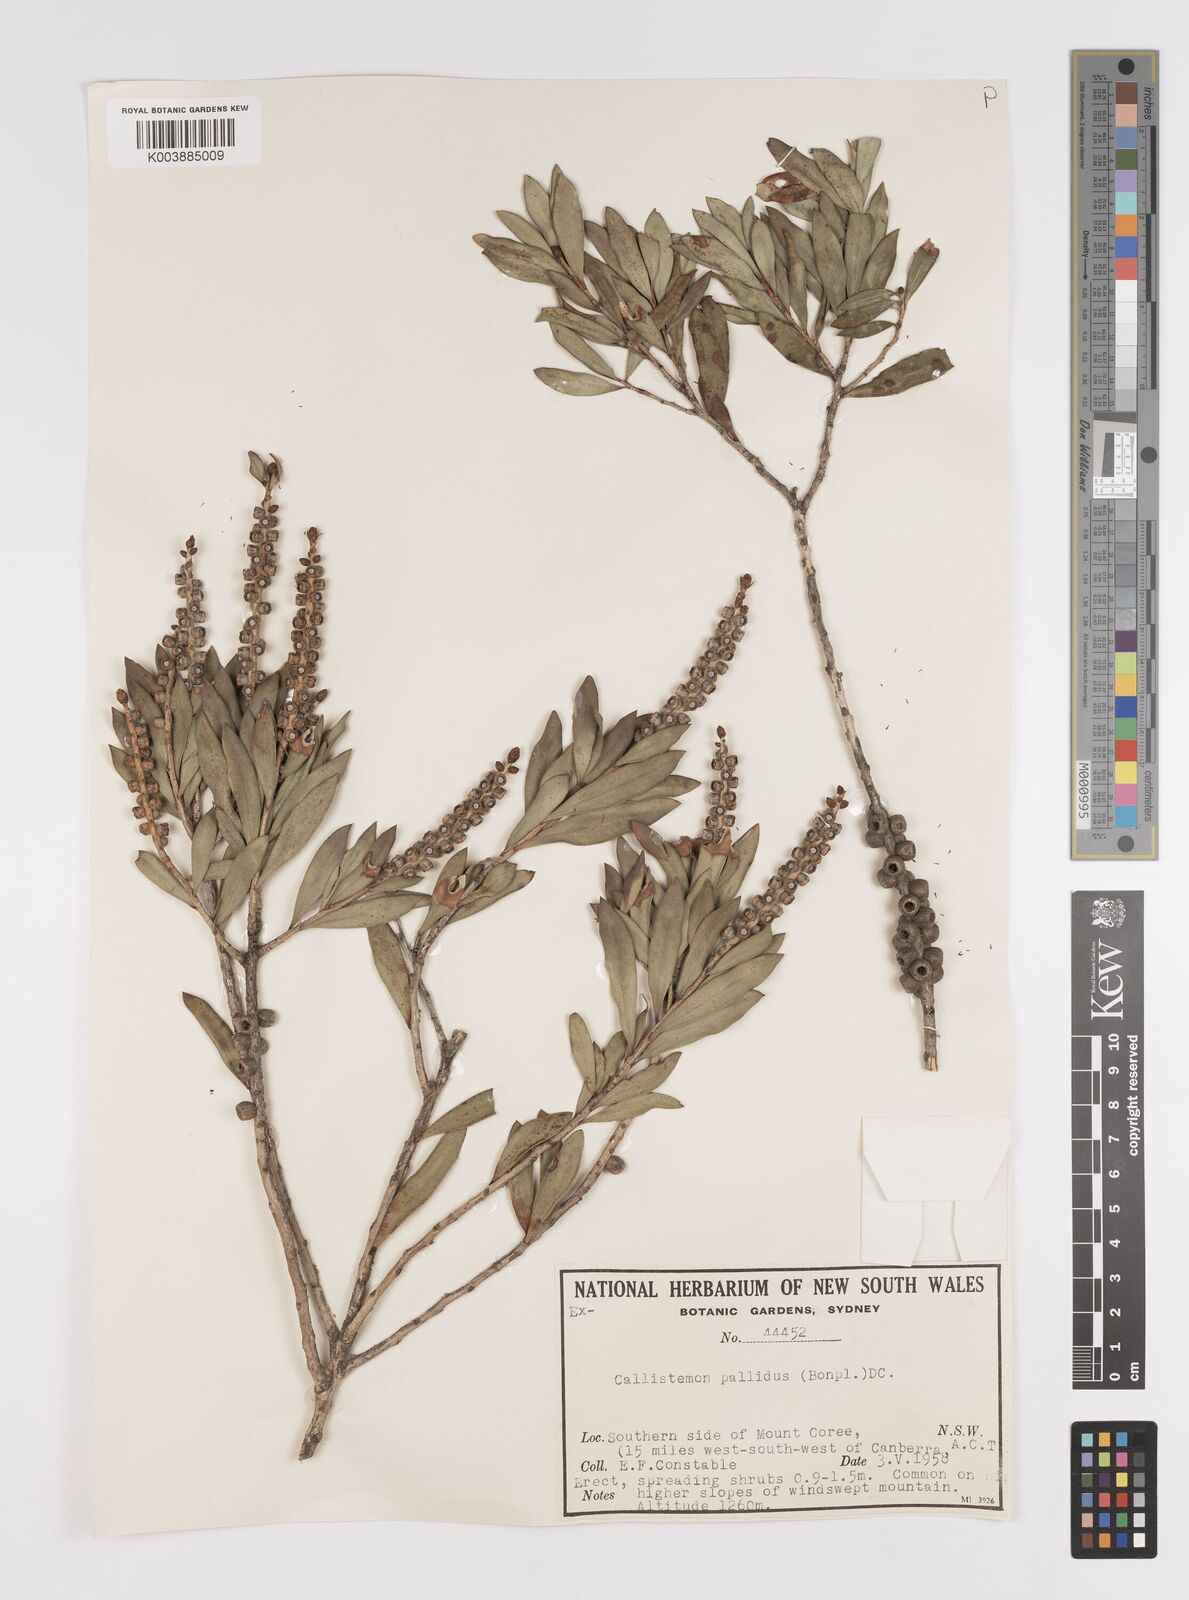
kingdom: Plantae
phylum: Tracheophyta
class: Magnoliopsida
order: Myrtales
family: Myrtaceae
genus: Melaleuca
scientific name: Melaleuca pallida
